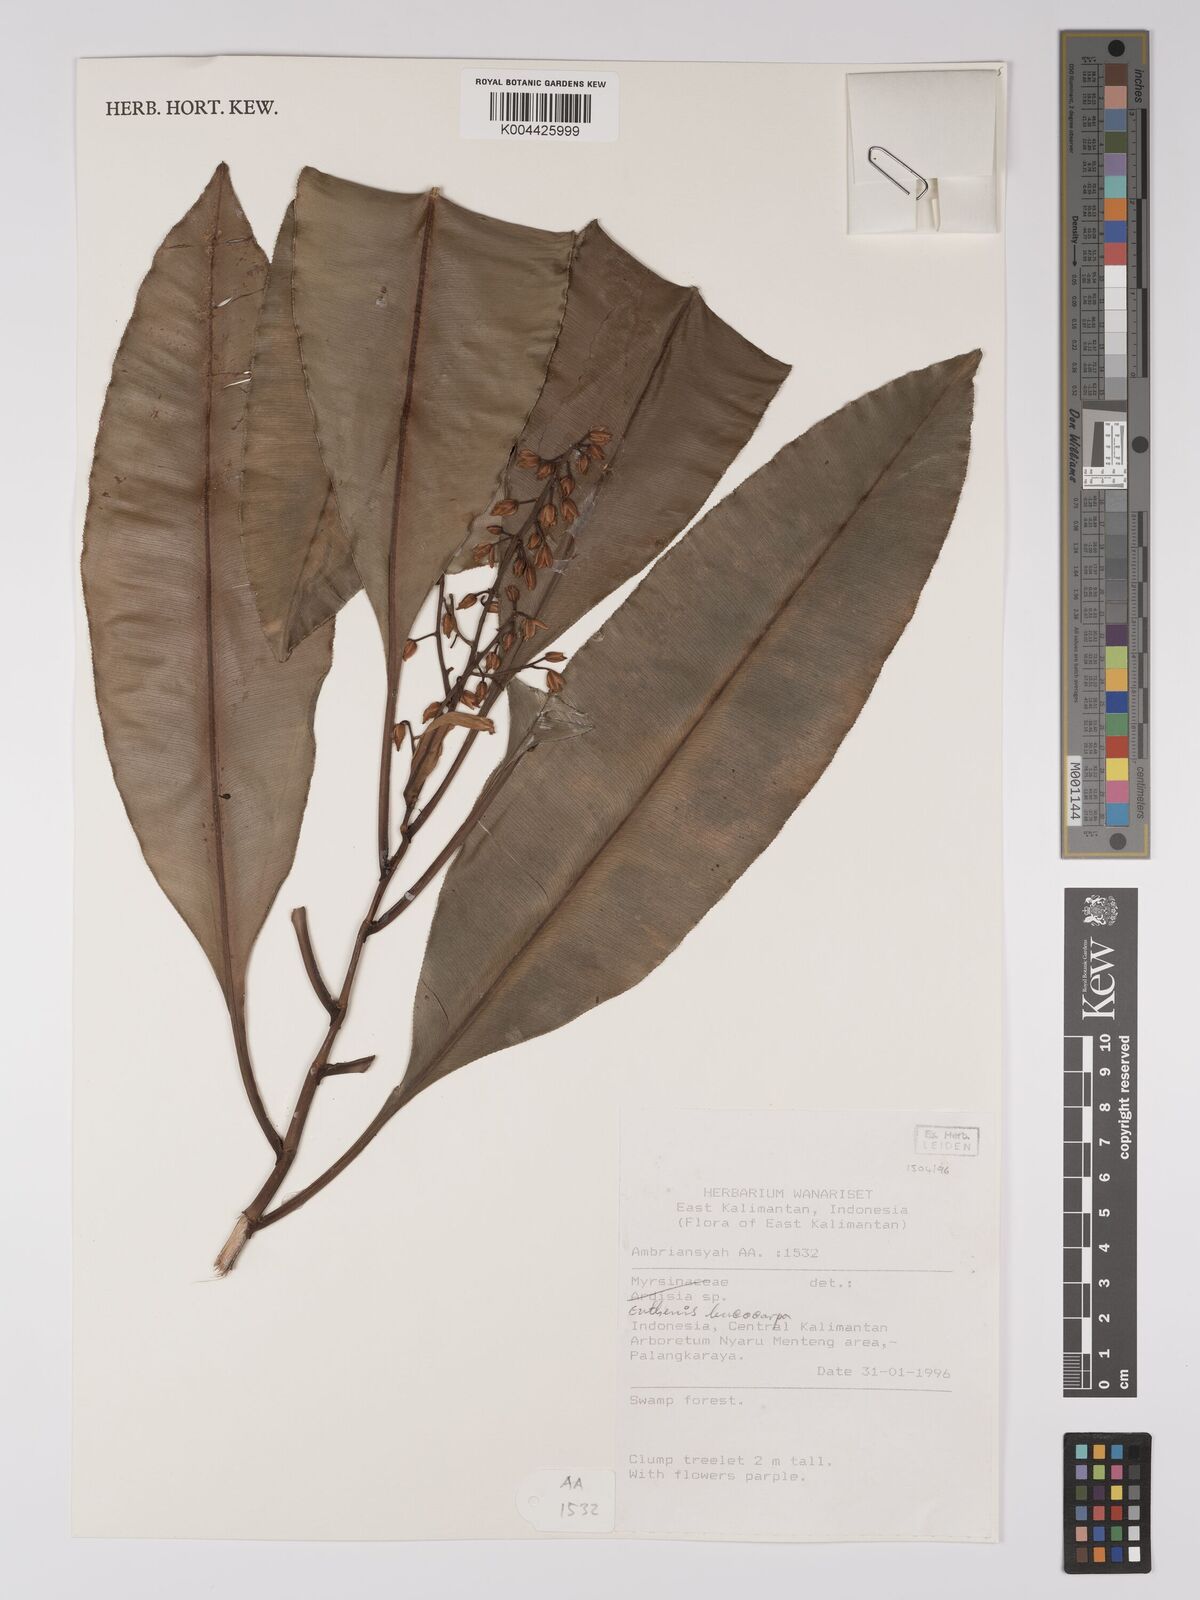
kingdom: Plantae
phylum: Tracheophyta
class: Magnoliopsida
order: Malpighiales
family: Ochnaceae
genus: Euthemis
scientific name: Euthemis leucocarpa
